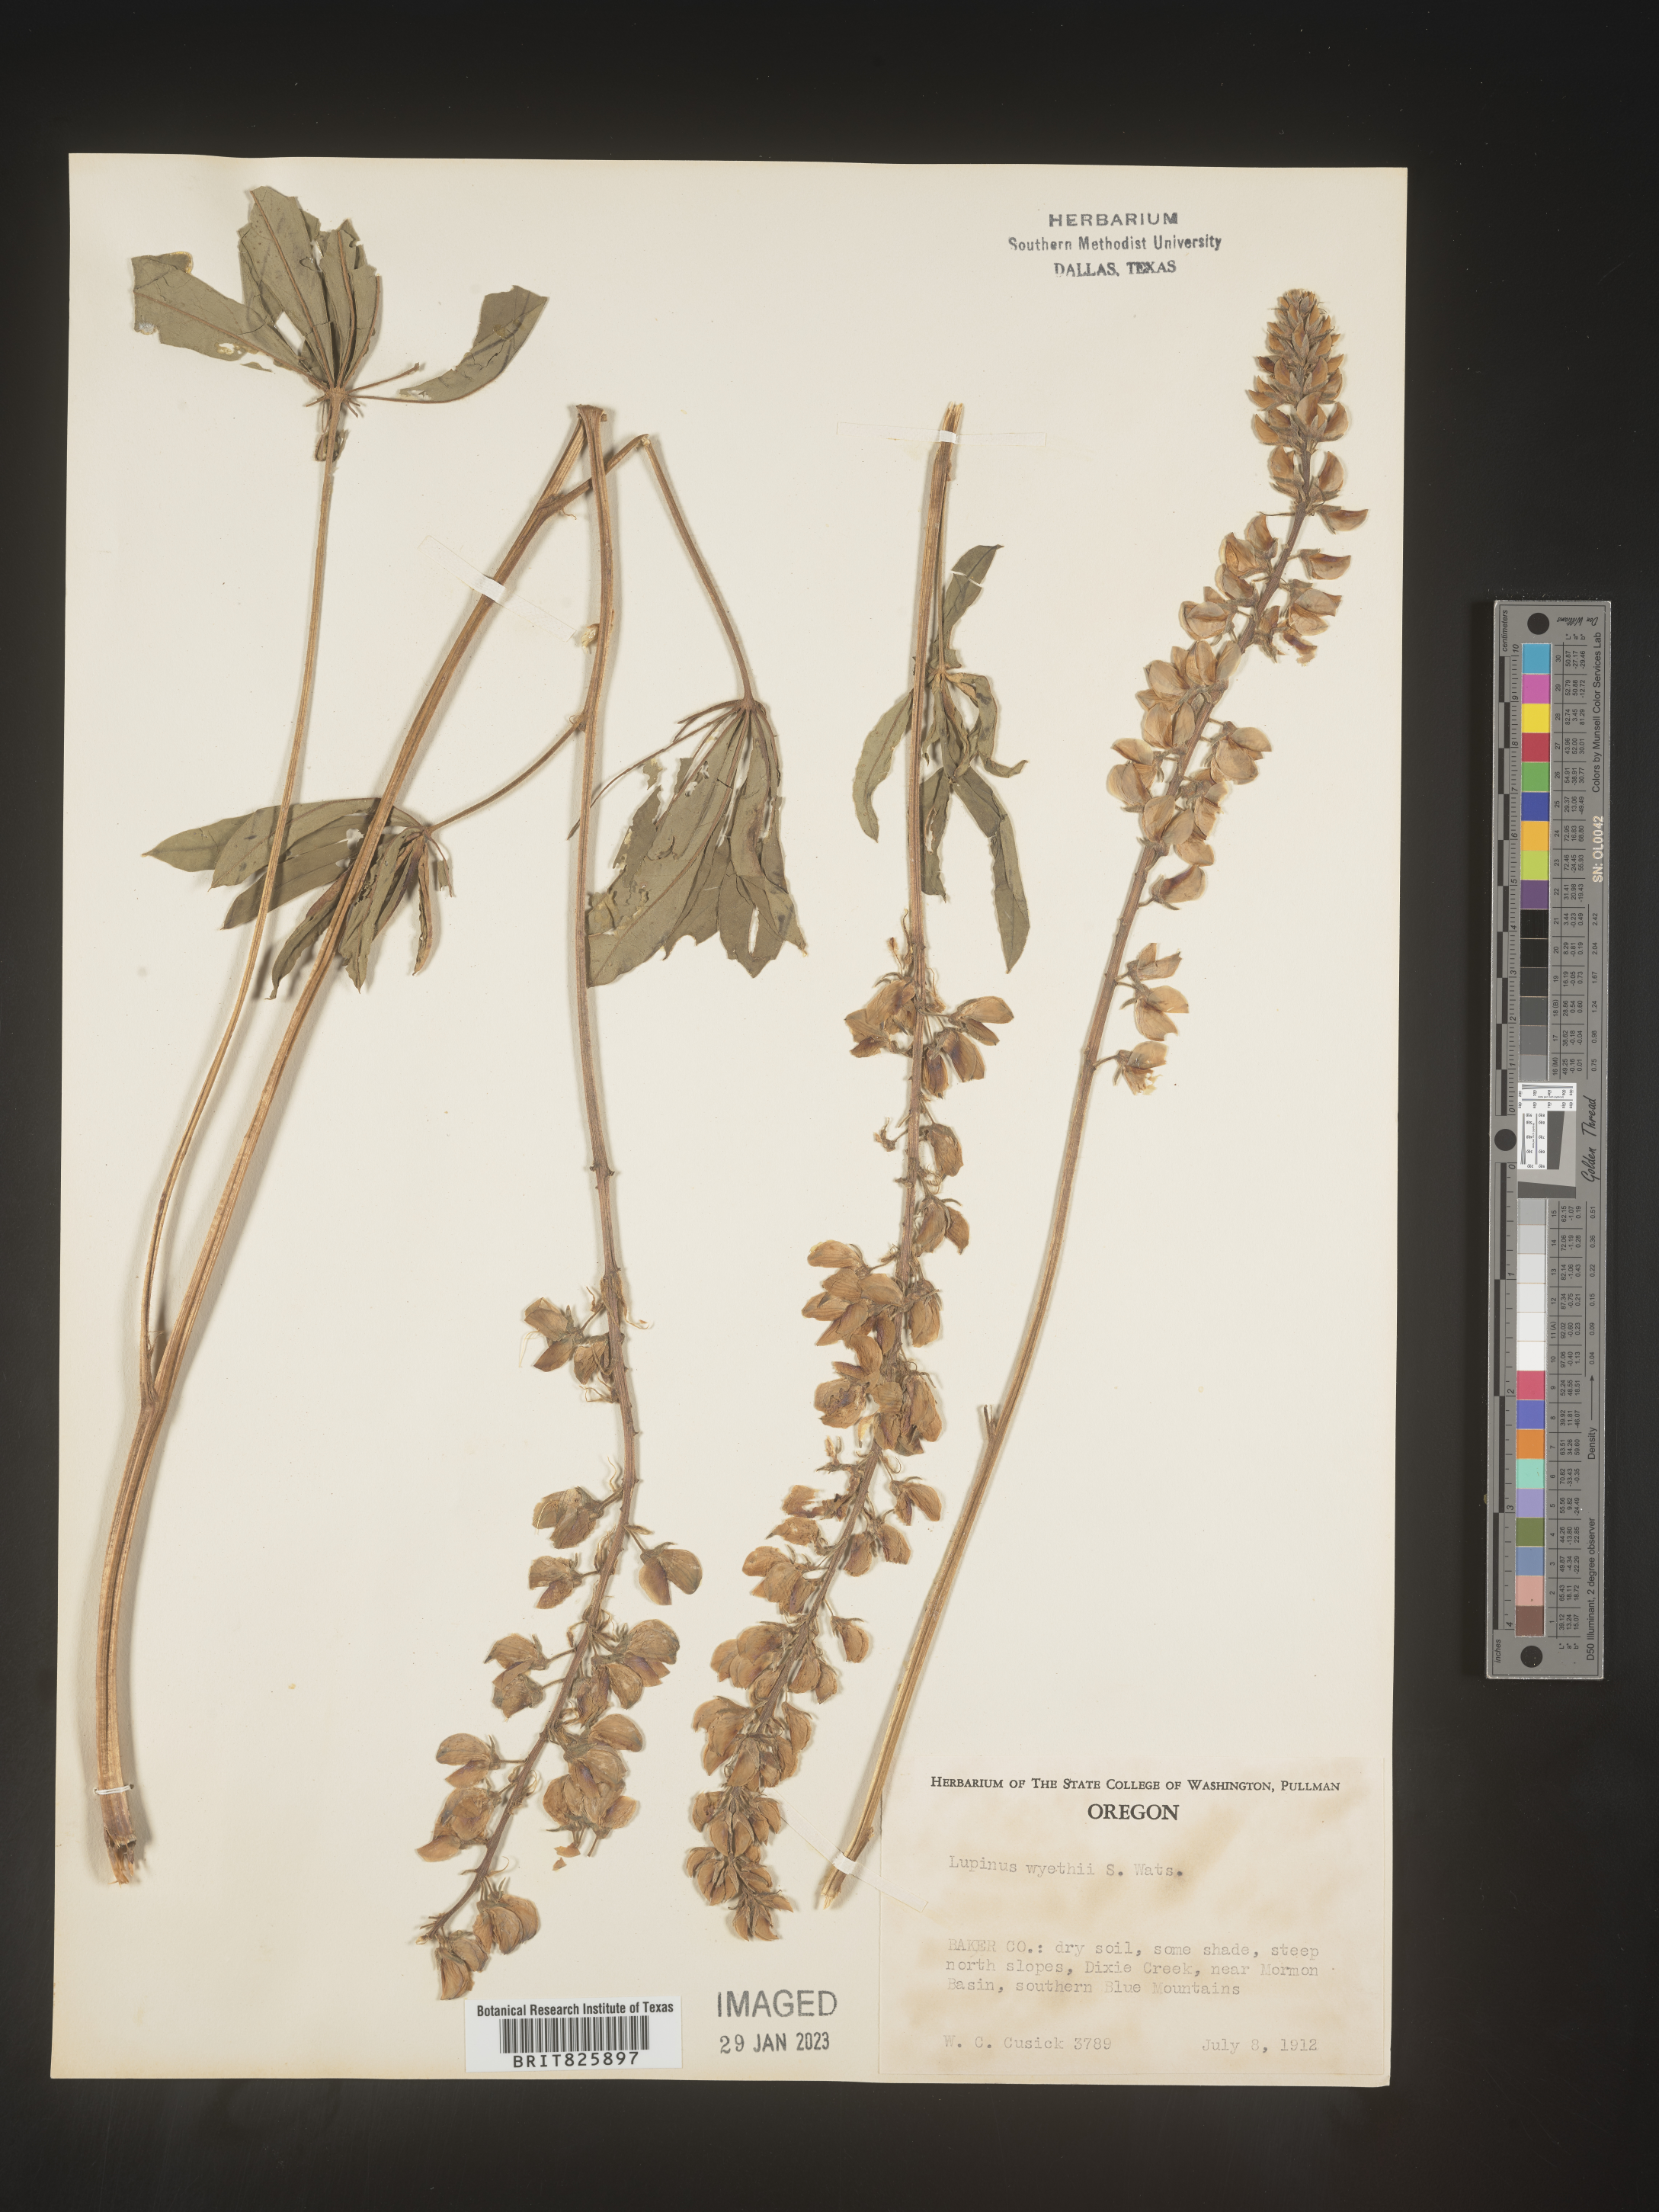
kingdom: Plantae
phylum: Tracheophyta
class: Magnoliopsida
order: Fabales
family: Fabaceae
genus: Lupinus
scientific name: Lupinus
